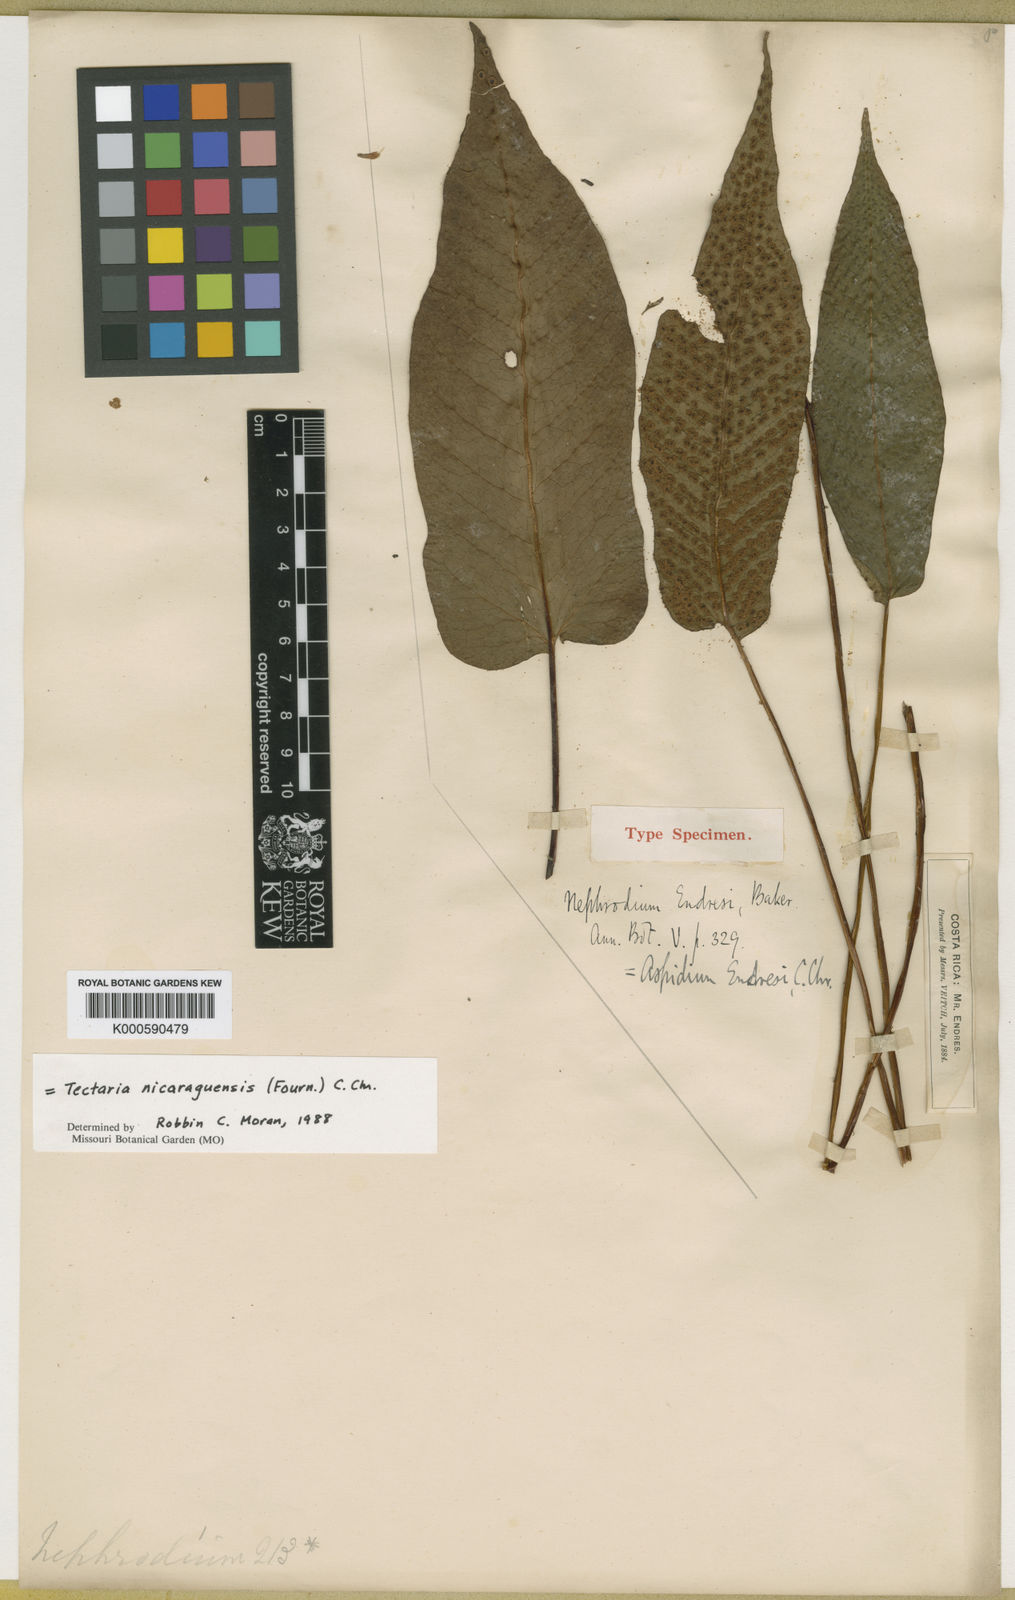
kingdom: Plantae
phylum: Tracheophyta
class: Polypodiopsida
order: Polypodiales
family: Tectariaceae
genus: Tectaria
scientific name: Tectaria nicaraguensis
